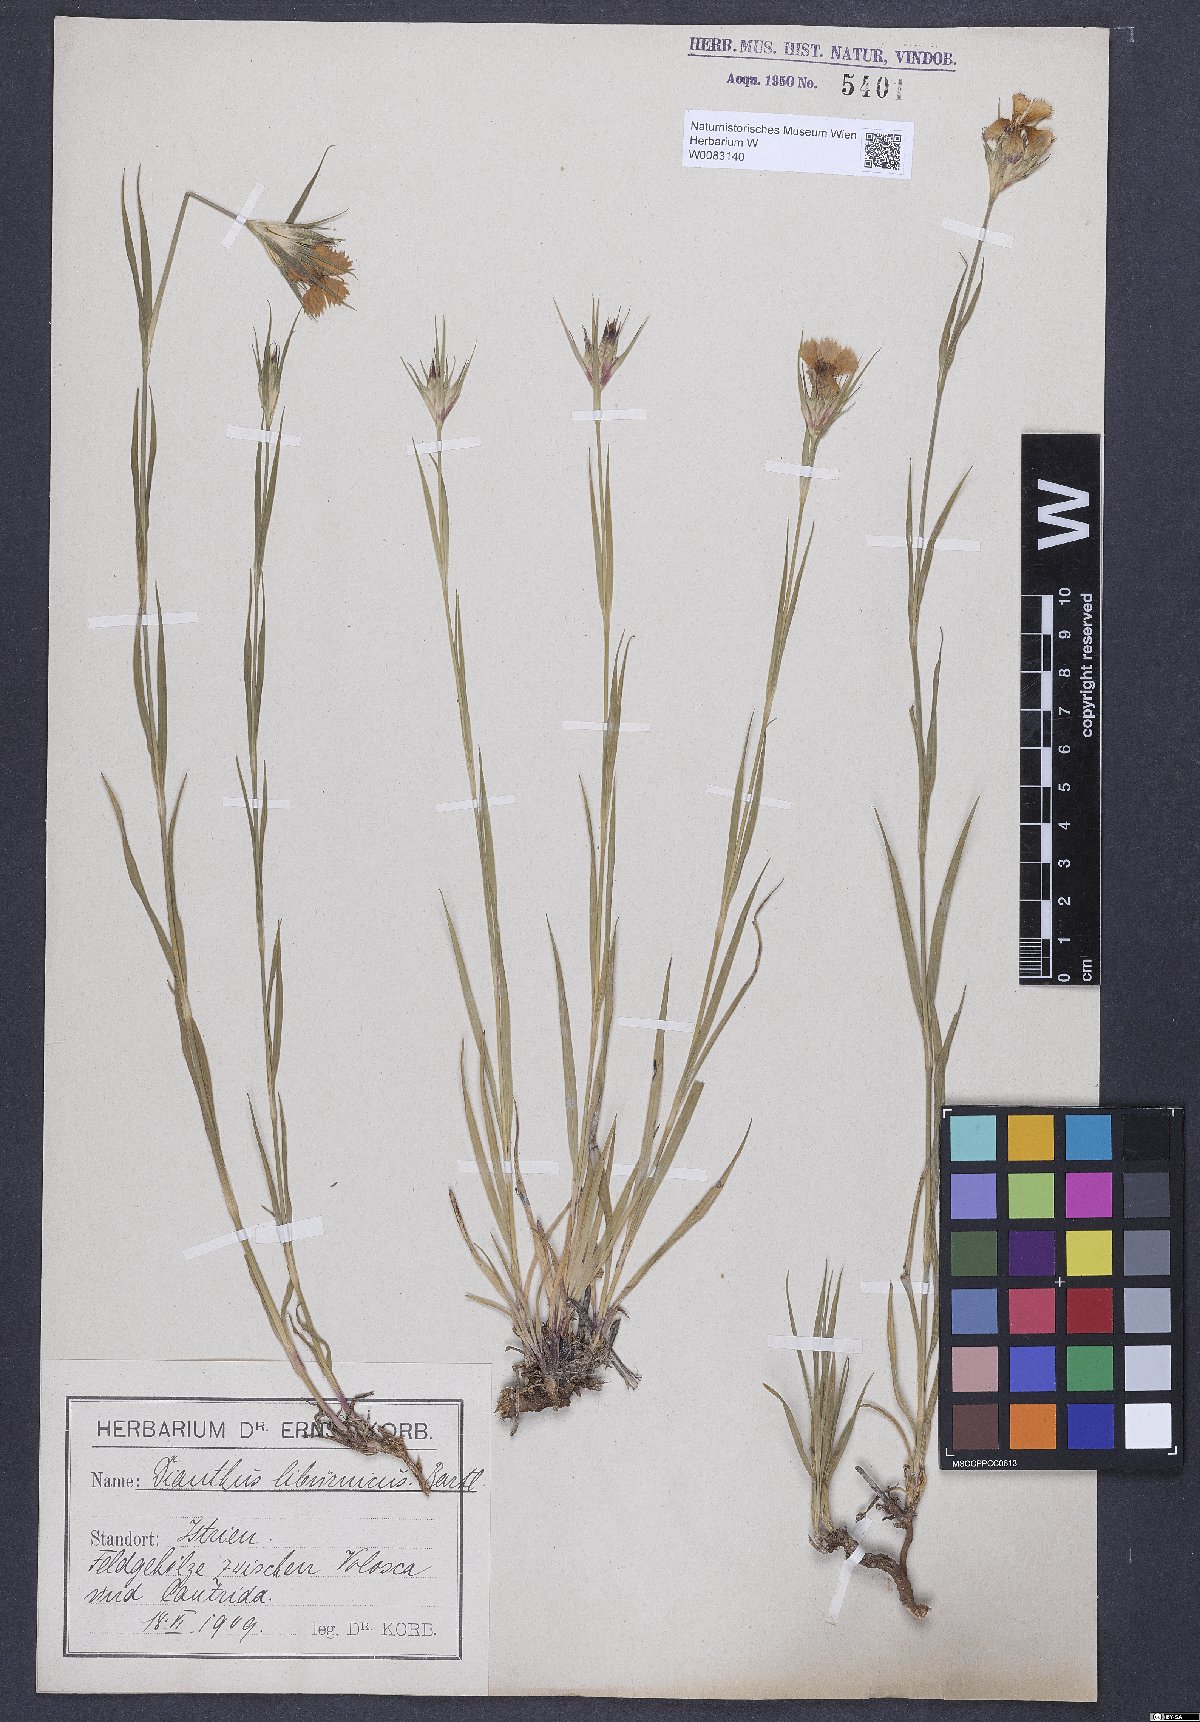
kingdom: Plantae
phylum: Tracheophyta
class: Magnoliopsida
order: Caryophyllales
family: Caryophyllaceae
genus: Dianthus
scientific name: Dianthus balbisii
